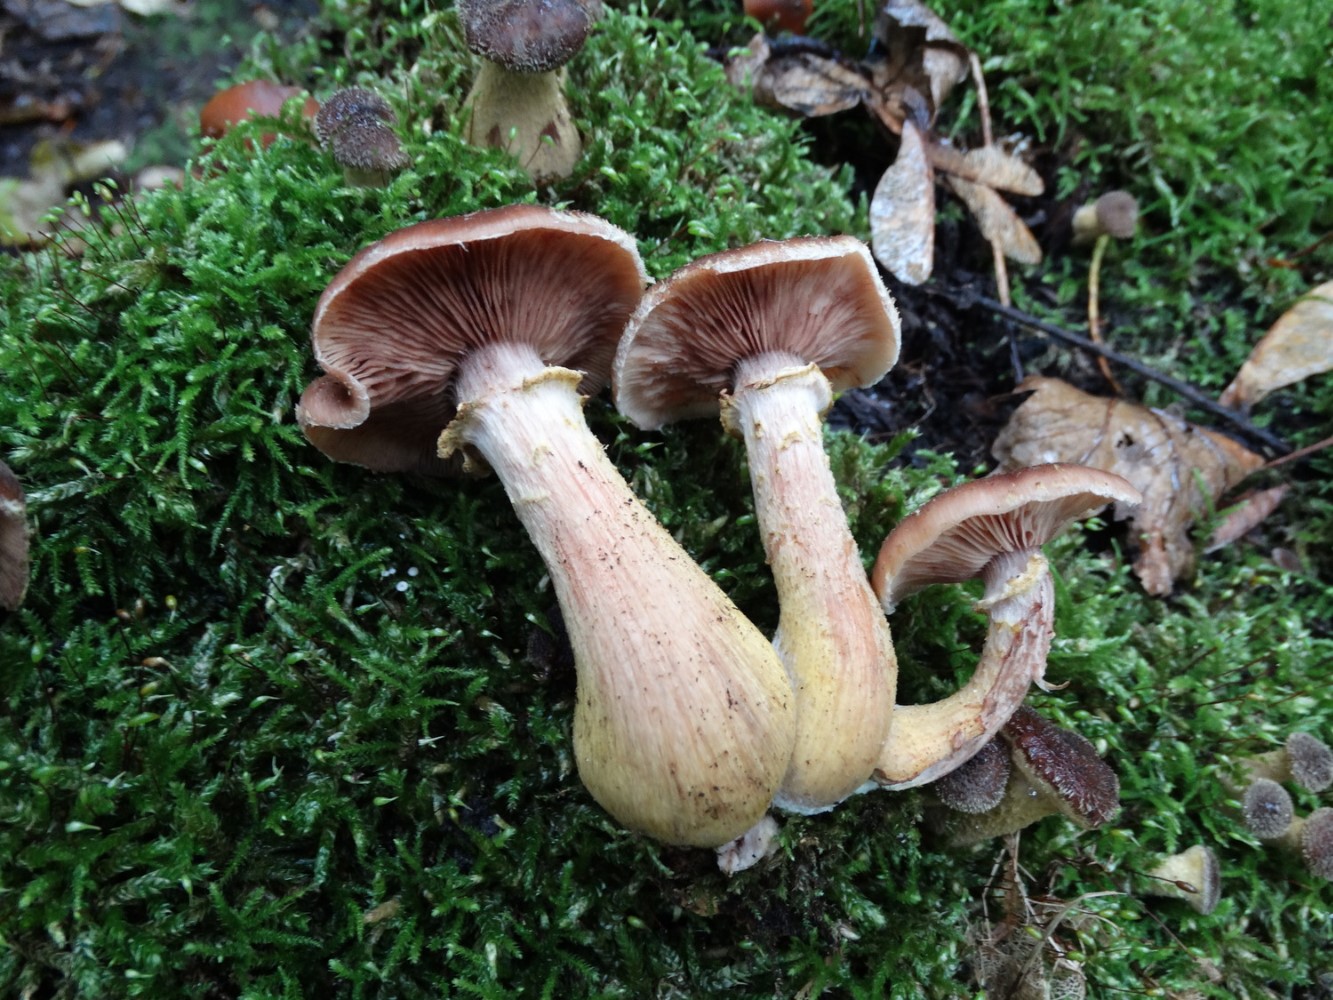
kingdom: Fungi
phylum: Basidiomycota
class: Agaricomycetes
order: Agaricales
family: Physalacriaceae
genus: Armillaria
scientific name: Armillaria lutea
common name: køllestokket honningsvamp
